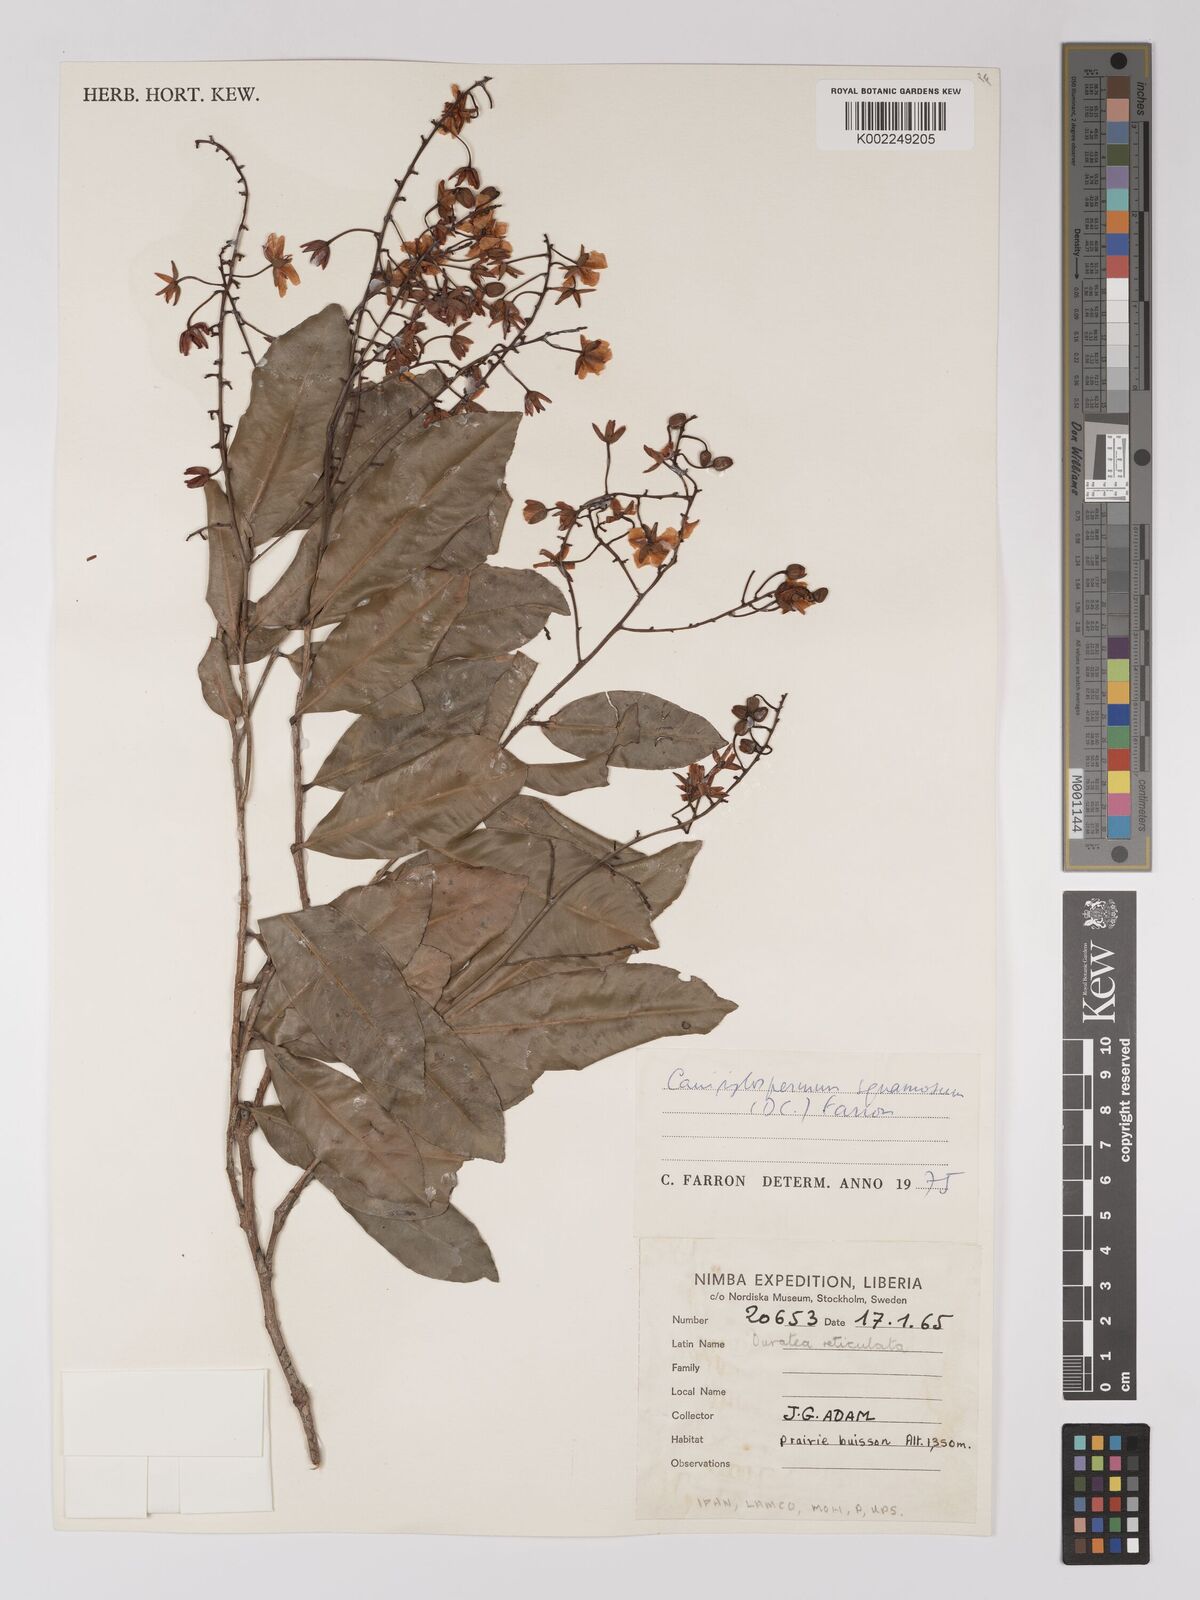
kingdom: Plantae
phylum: Tracheophyta
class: Magnoliopsida
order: Malpighiales
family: Ochnaceae
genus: Campylospermum
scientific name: Campylospermum squamosum
